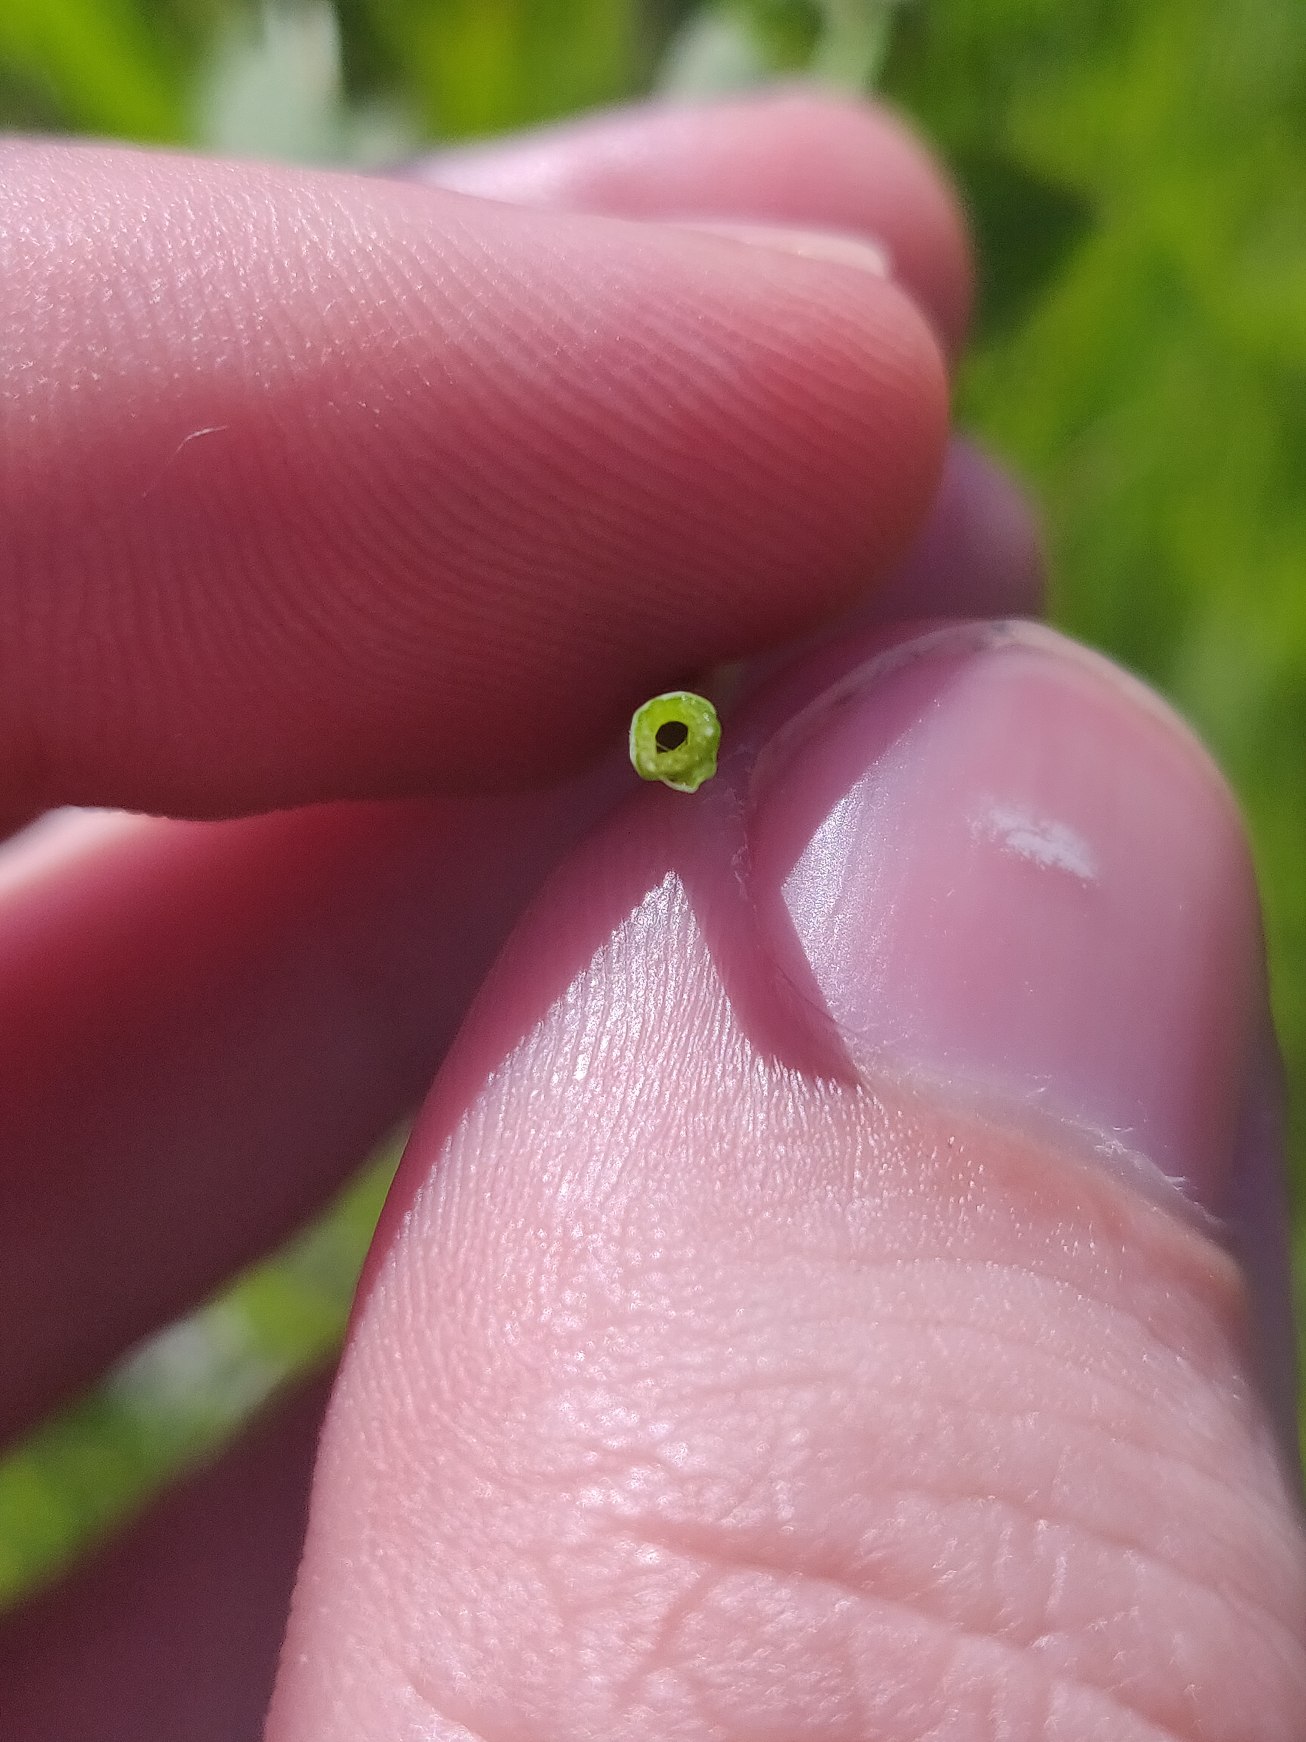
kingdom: Plantae
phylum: Tracheophyta
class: Magnoliopsida
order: Fabales
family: Fabaceae
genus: Lotus
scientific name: Lotus pedunculatus
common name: Sump-kællingetand
